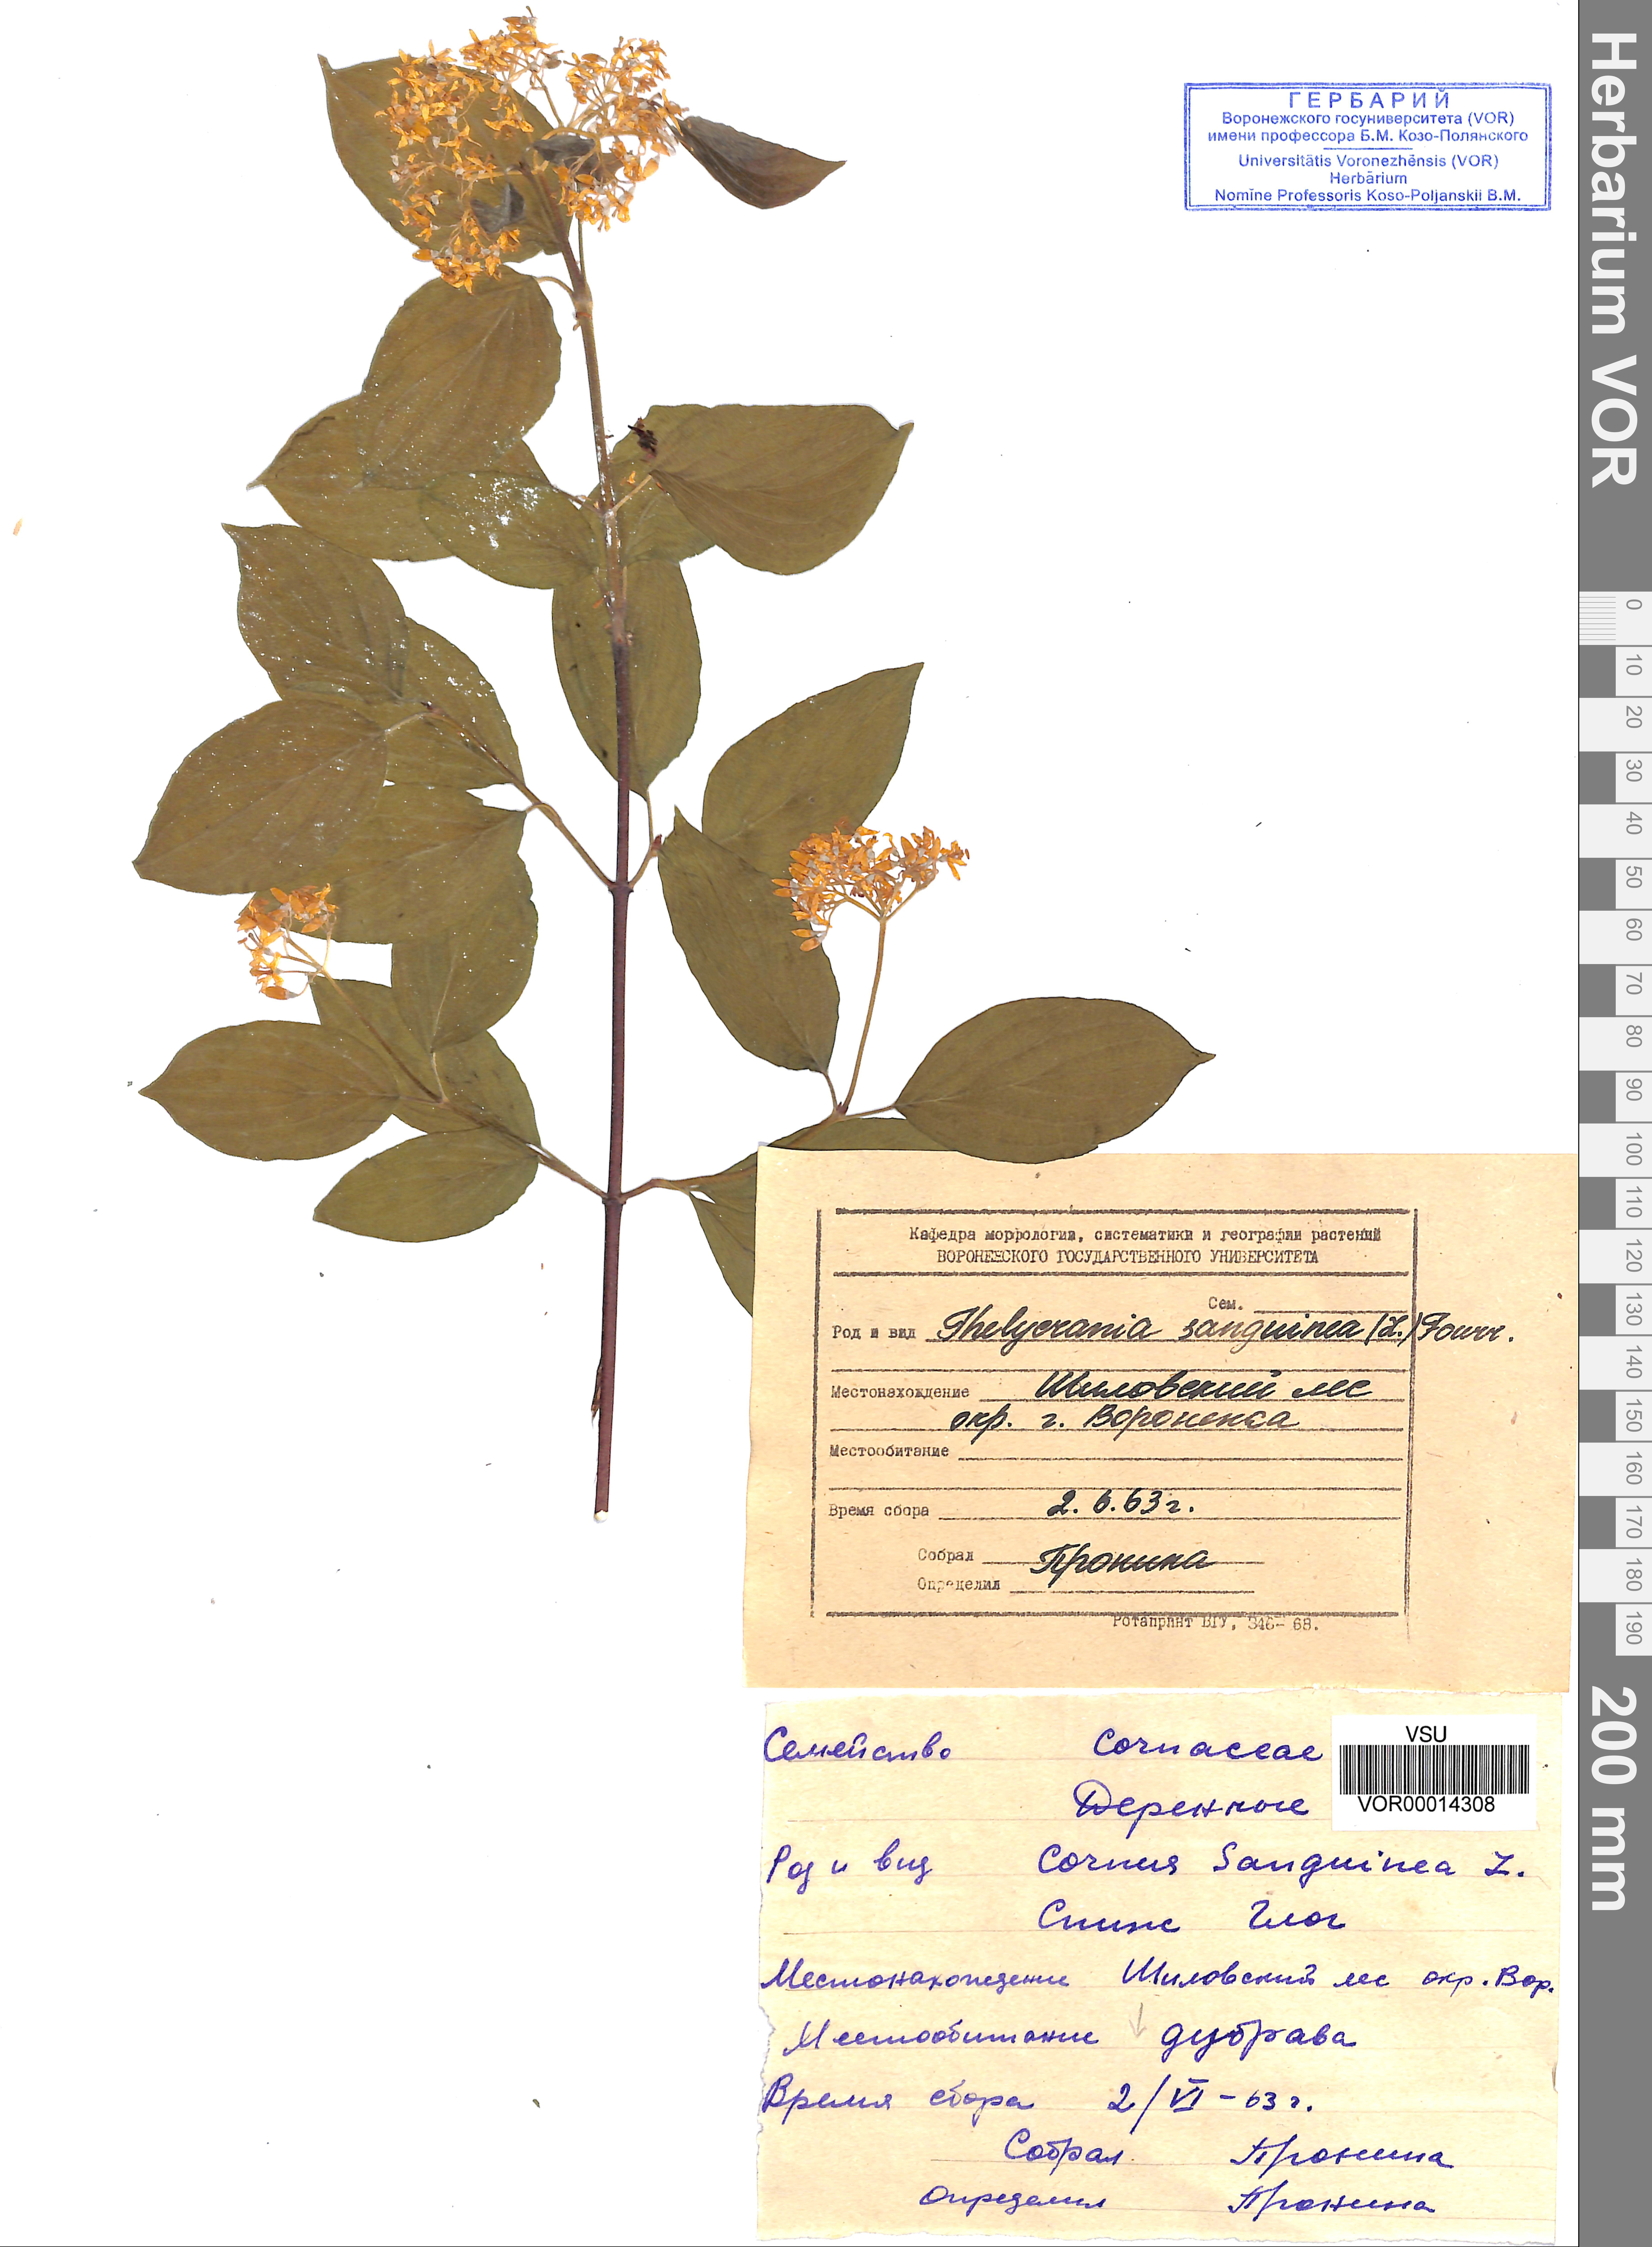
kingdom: Plantae
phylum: Tracheophyta
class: Magnoliopsida
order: Cornales
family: Cornaceae
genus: Cornus
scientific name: Cornus sanguinea
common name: Dogwood
